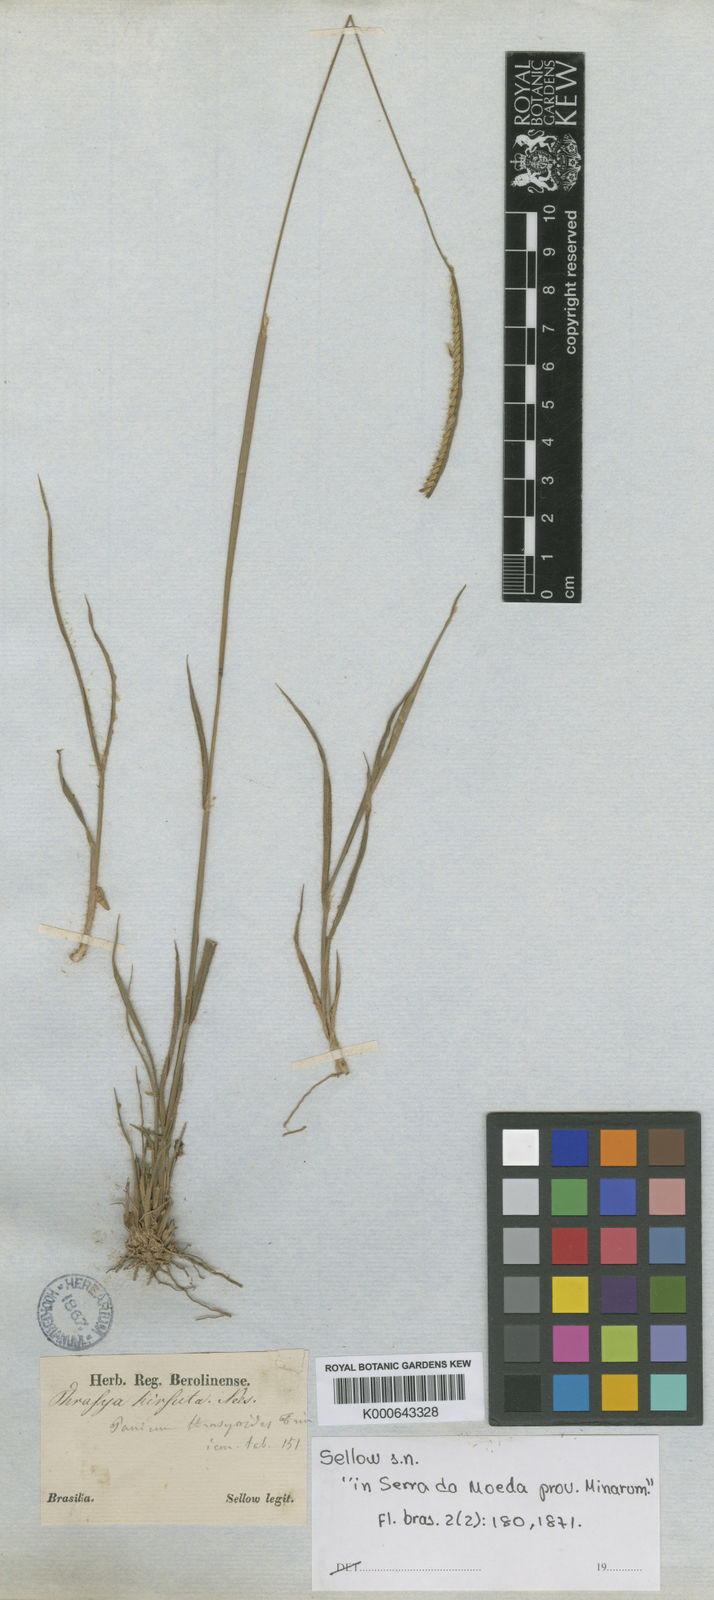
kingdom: Plantae
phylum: Tracheophyta
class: Liliopsida
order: Poales
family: Poaceae
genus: Paspalum
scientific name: Paspalum thrasyoides
